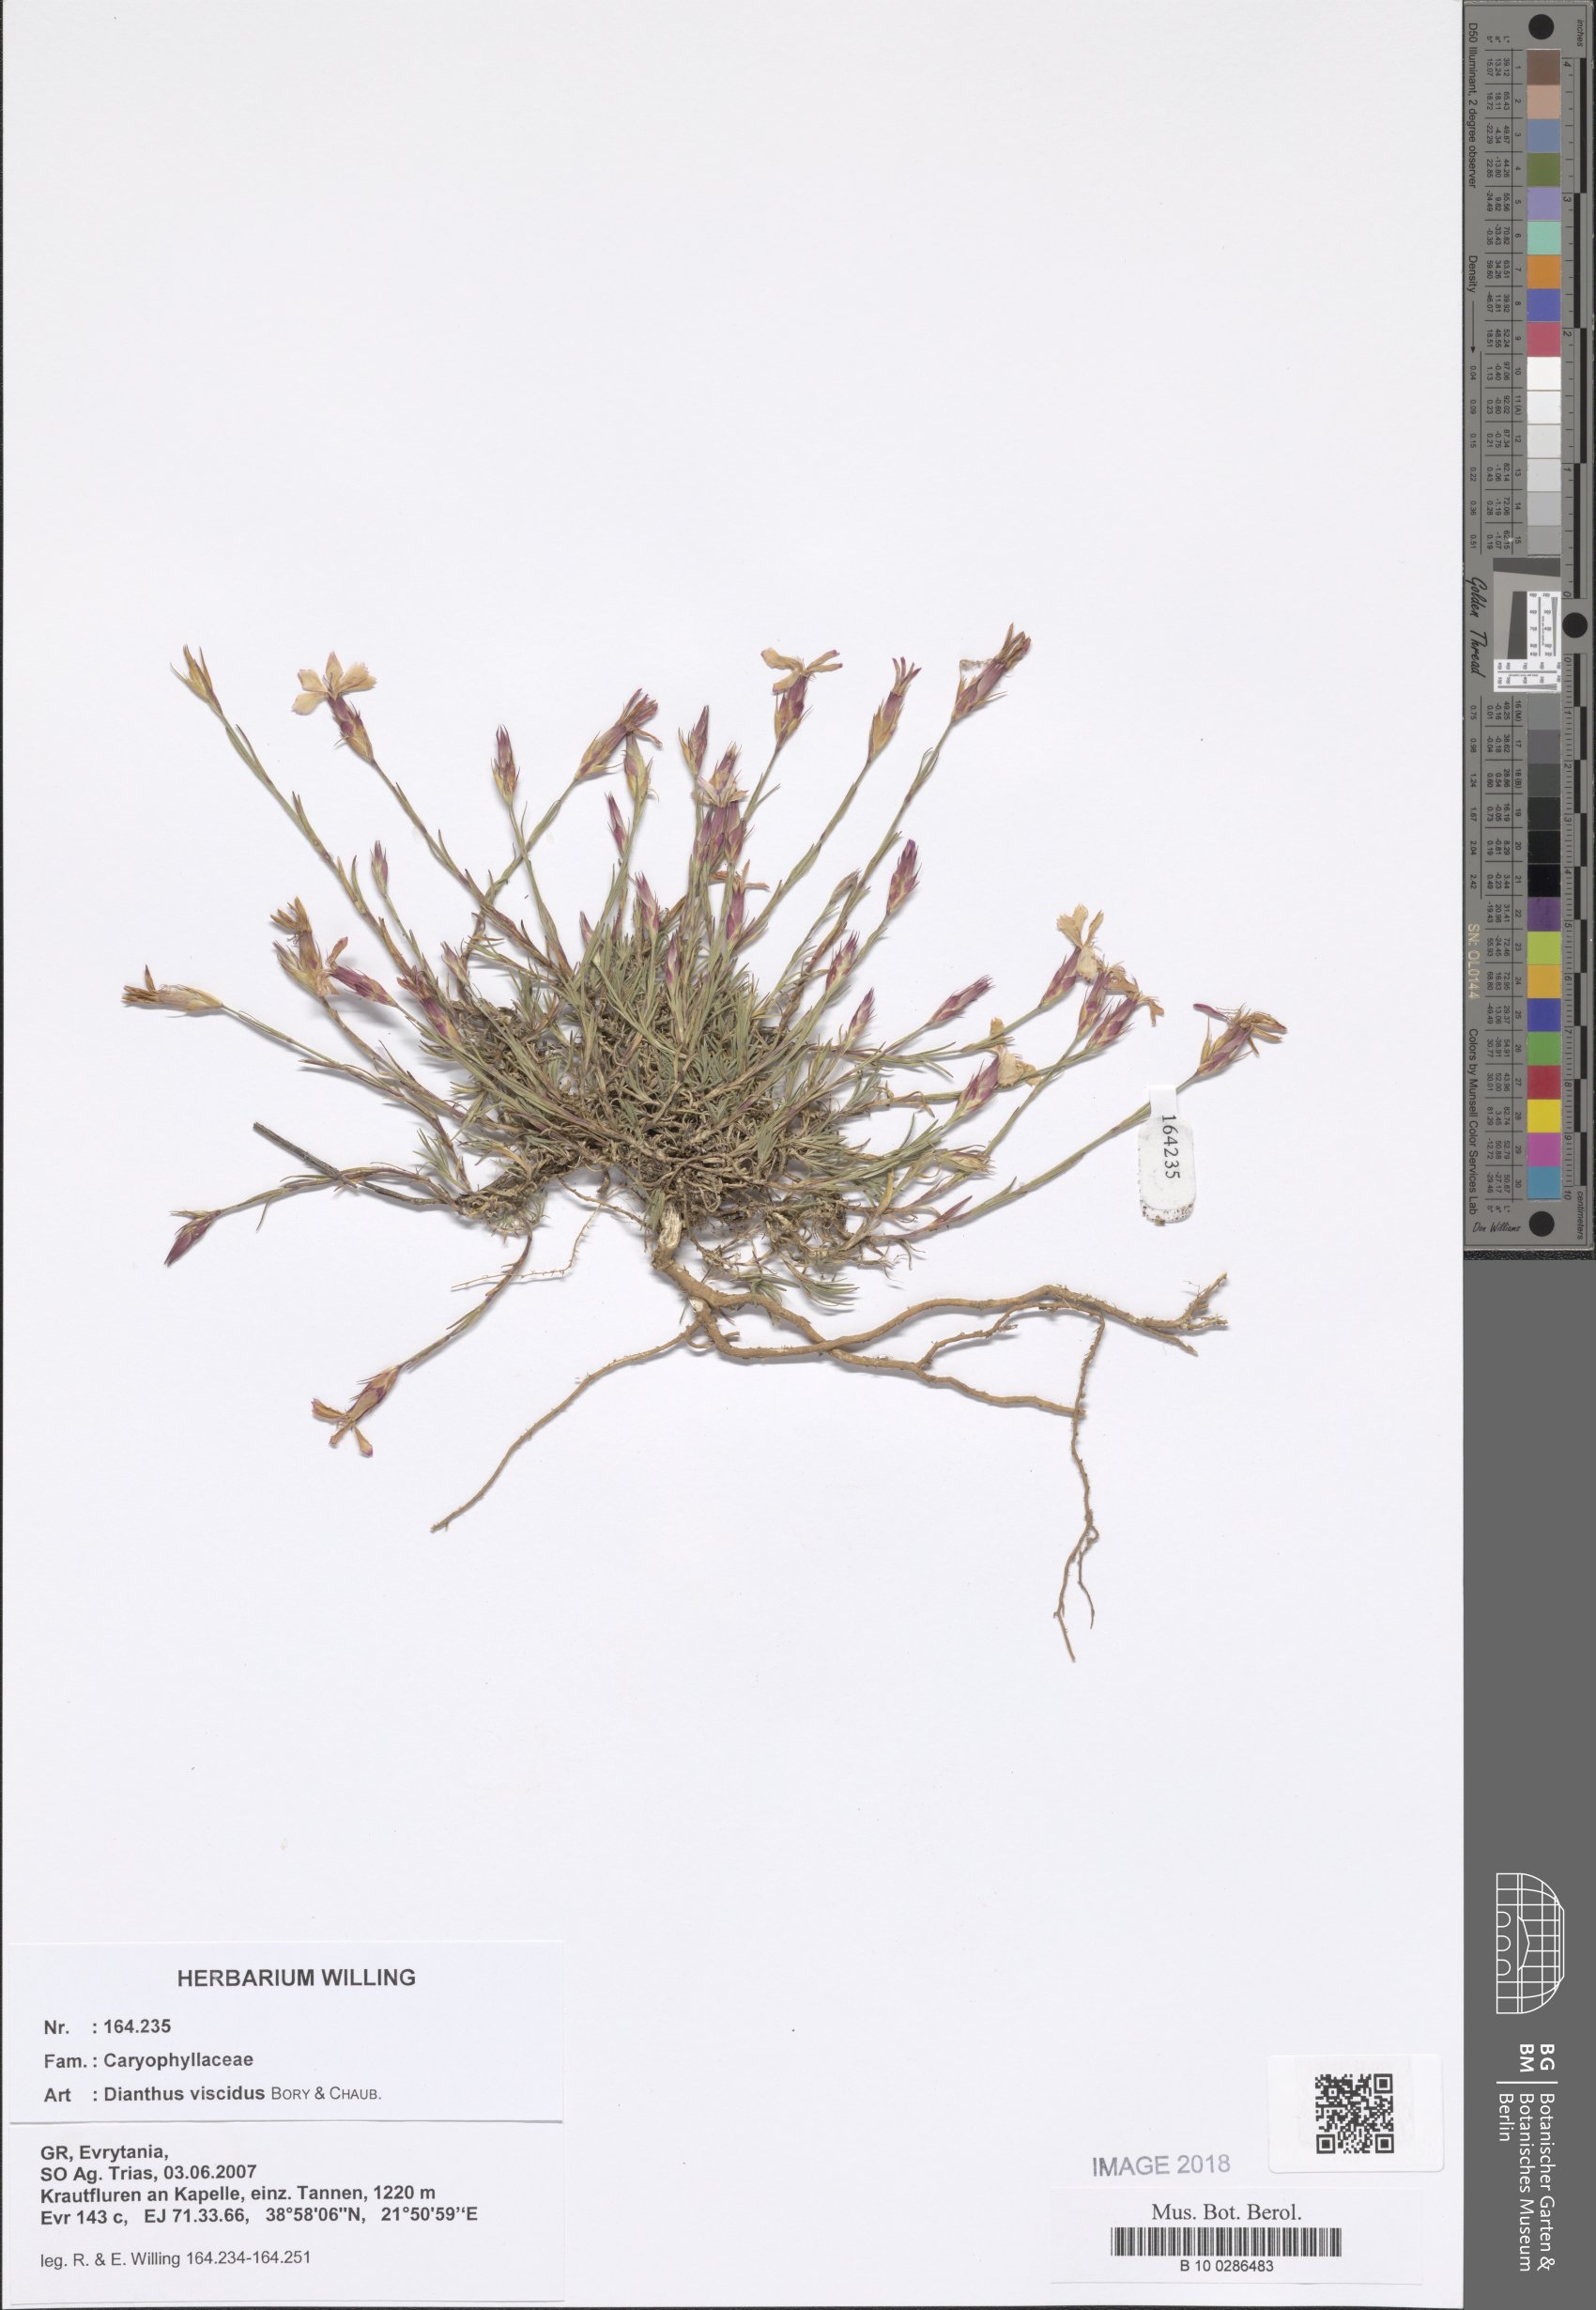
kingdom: Plantae
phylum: Tracheophyta
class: Magnoliopsida
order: Caryophyllales
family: Caryophyllaceae
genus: Dianthus
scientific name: Dianthus viscidus
